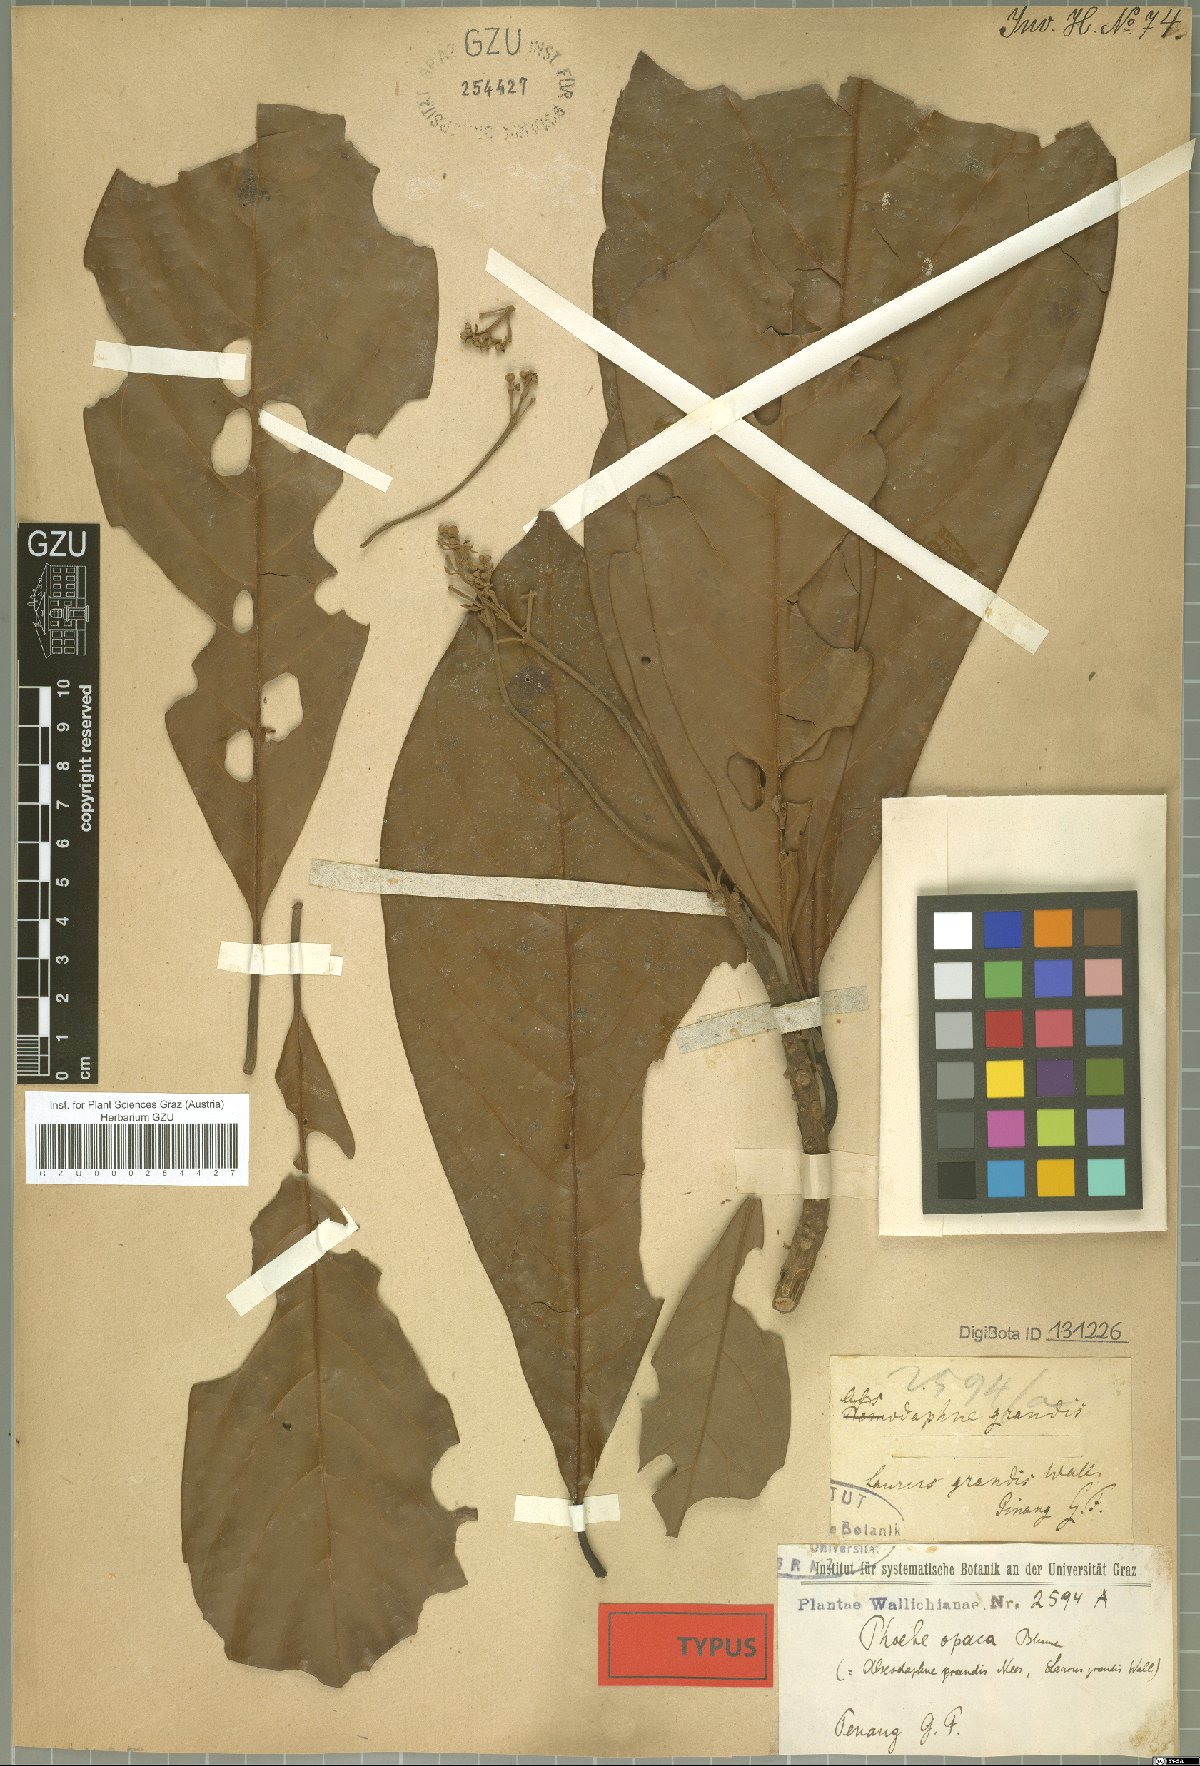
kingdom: Plantae
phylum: Tracheophyta
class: Magnoliopsida
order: Laurales
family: Lauraceae
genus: Phoebe
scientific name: Phoebe grandis
